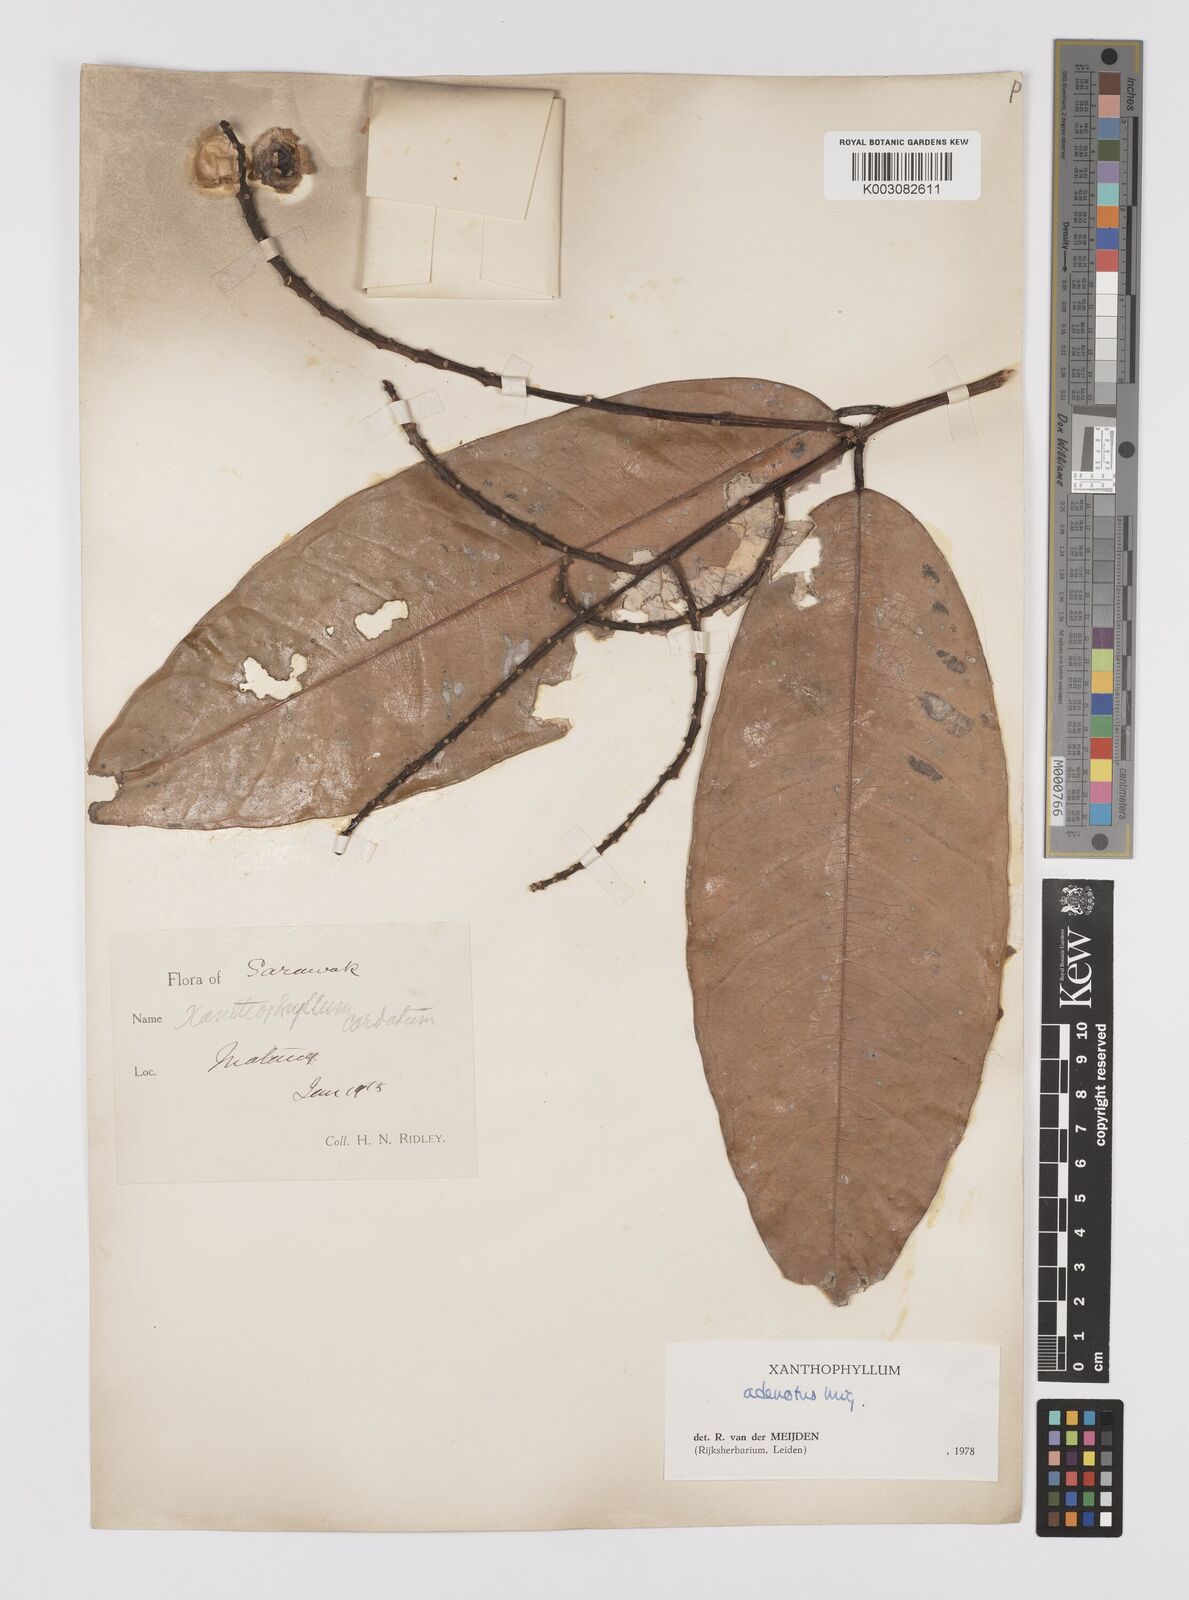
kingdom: Plantae
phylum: Tracheophyta
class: Magnoliopsida
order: Fabales
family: Polygalaceae
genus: Xanthophyllum
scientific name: Xanthophyllum adenotus
